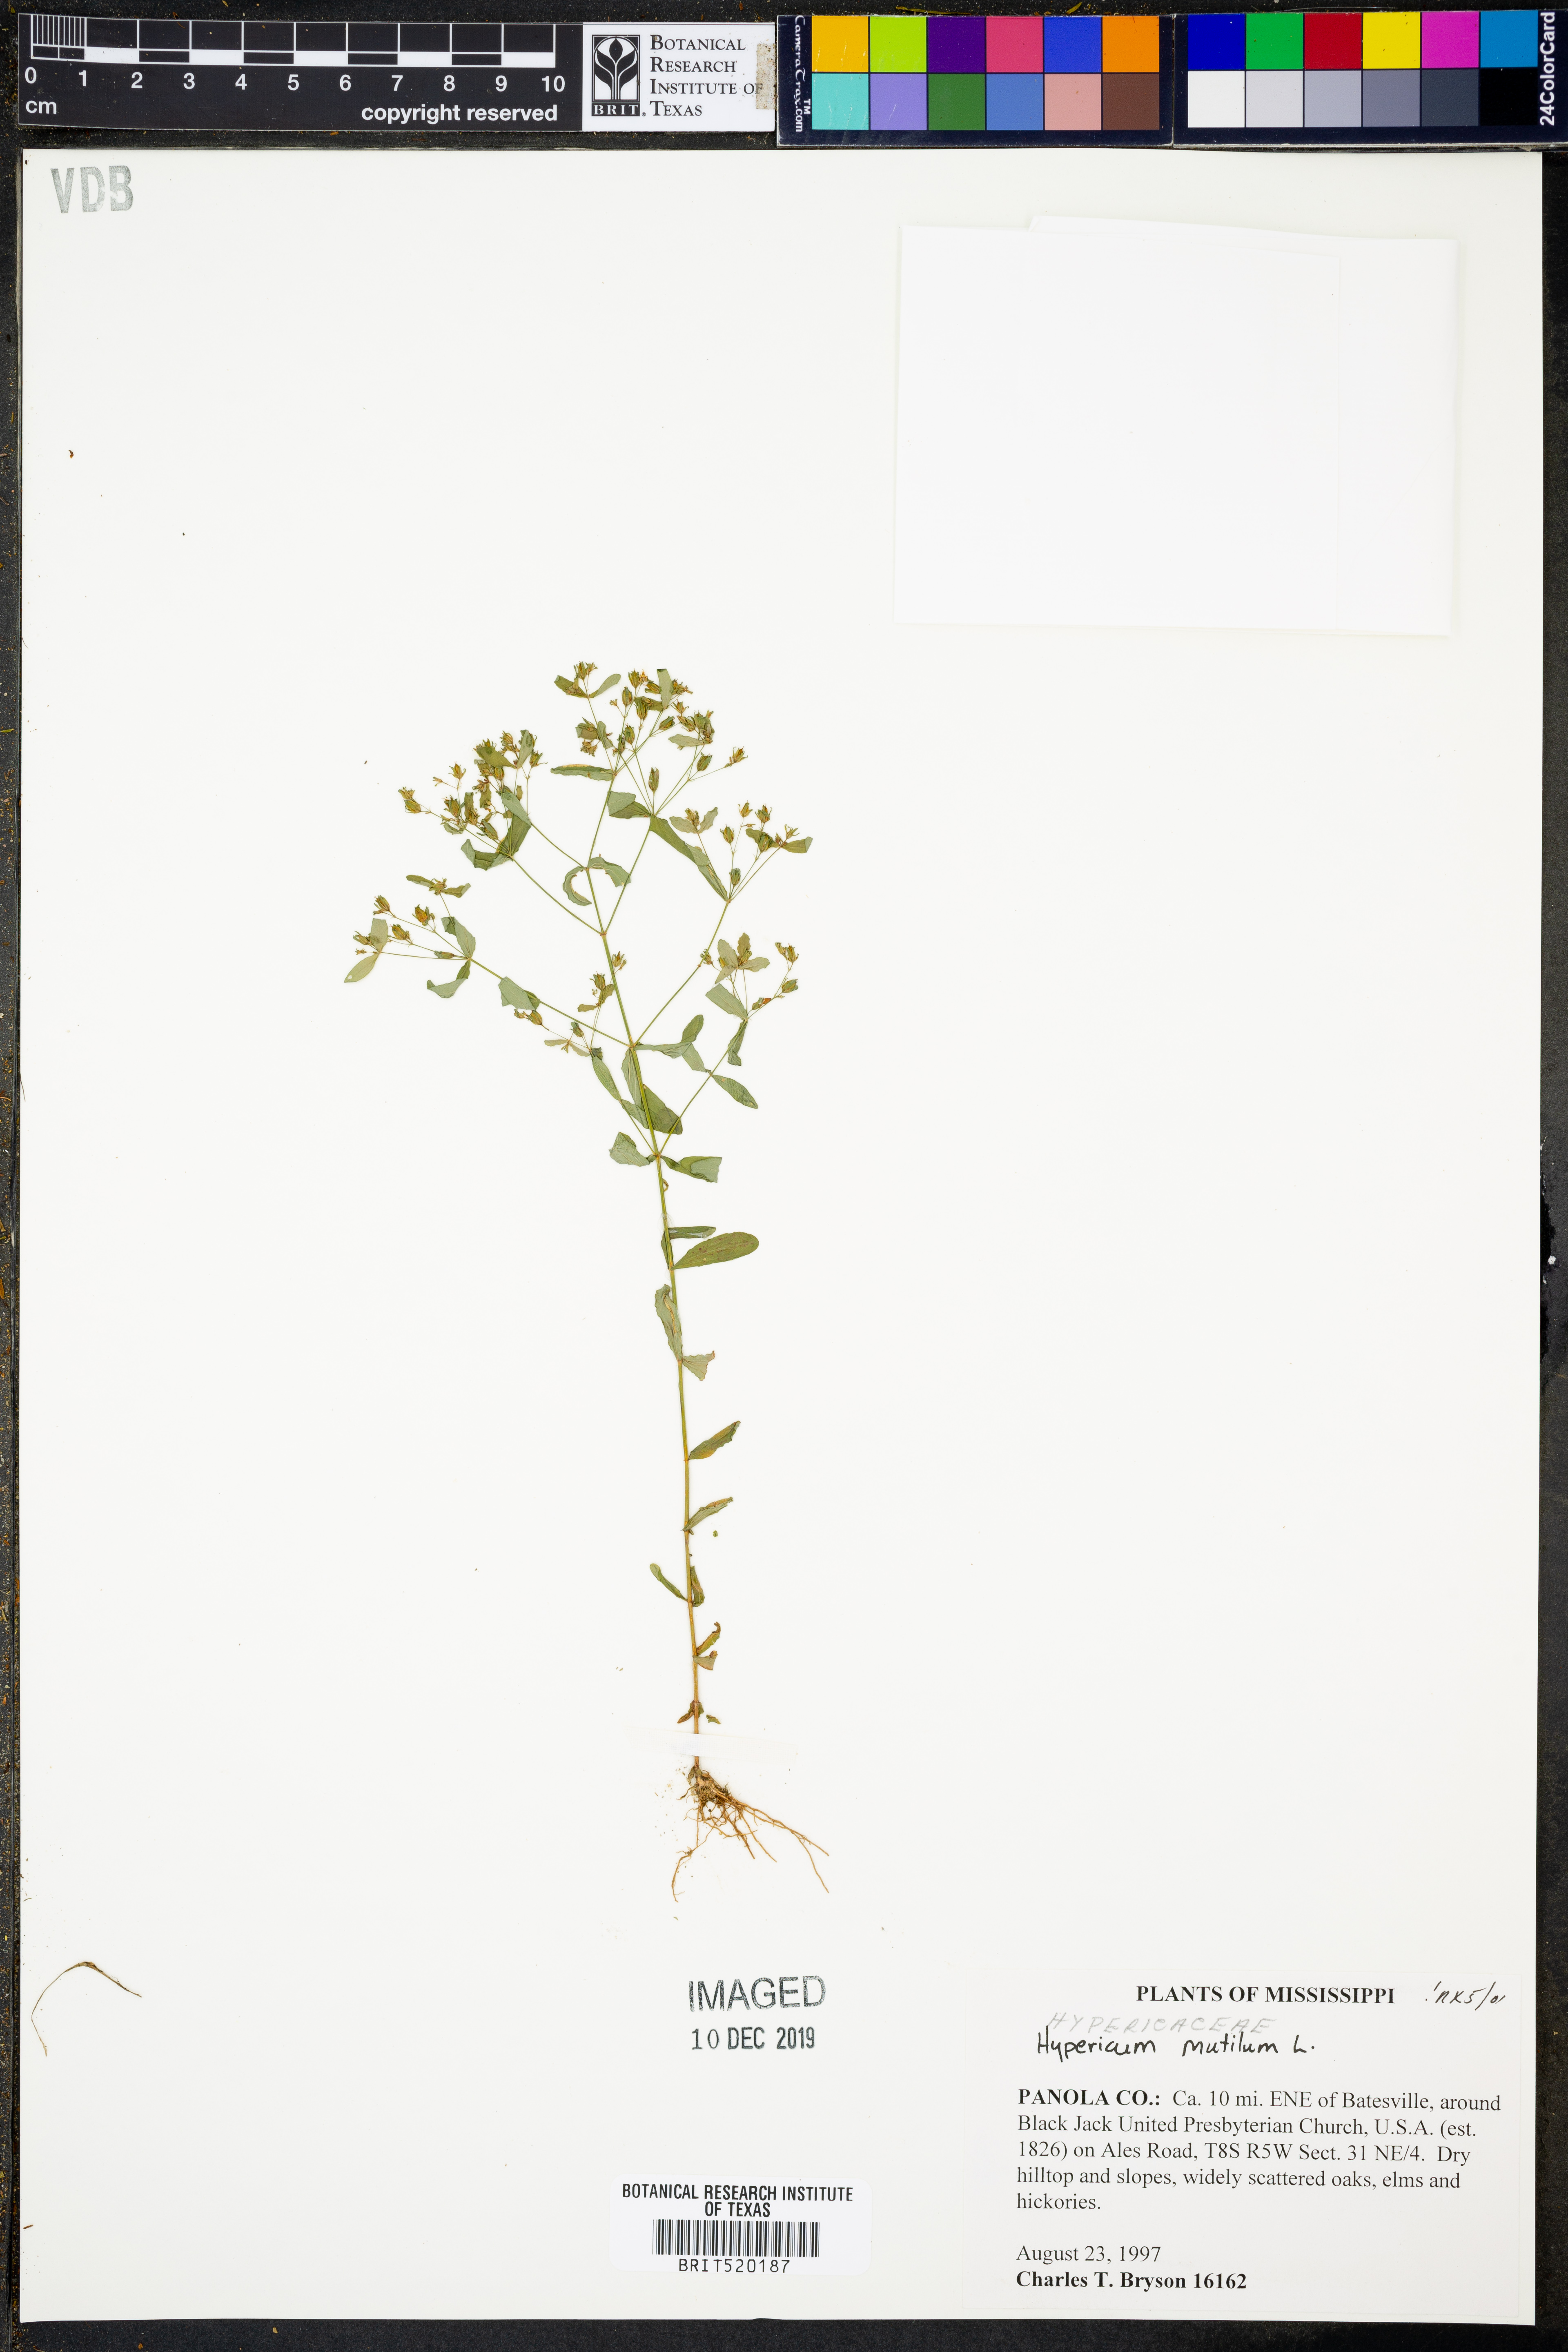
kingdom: Plantae
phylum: Tracheophyta
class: Magnoliopsida
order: Malpighiales
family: Hypericaceae
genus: Hypericum
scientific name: Hypericum mutilum
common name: Dwarf st. john's-wort
